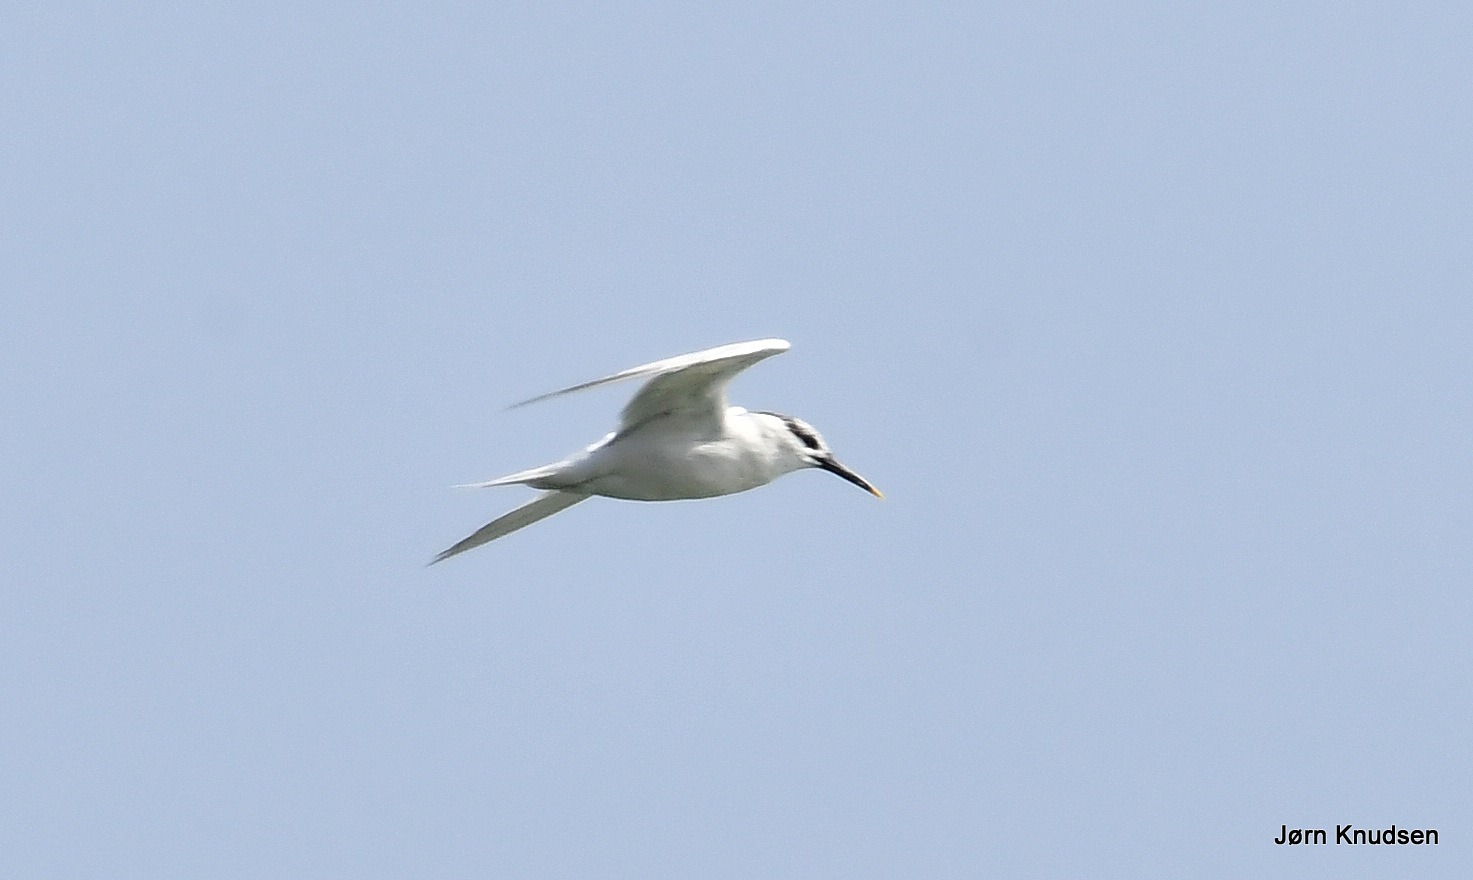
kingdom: Animalia
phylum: Chordata
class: Aves
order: Charadriiformes
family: Laridae
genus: Thalasseus
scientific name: Thalasseus sandvicensis
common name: Splitterne
